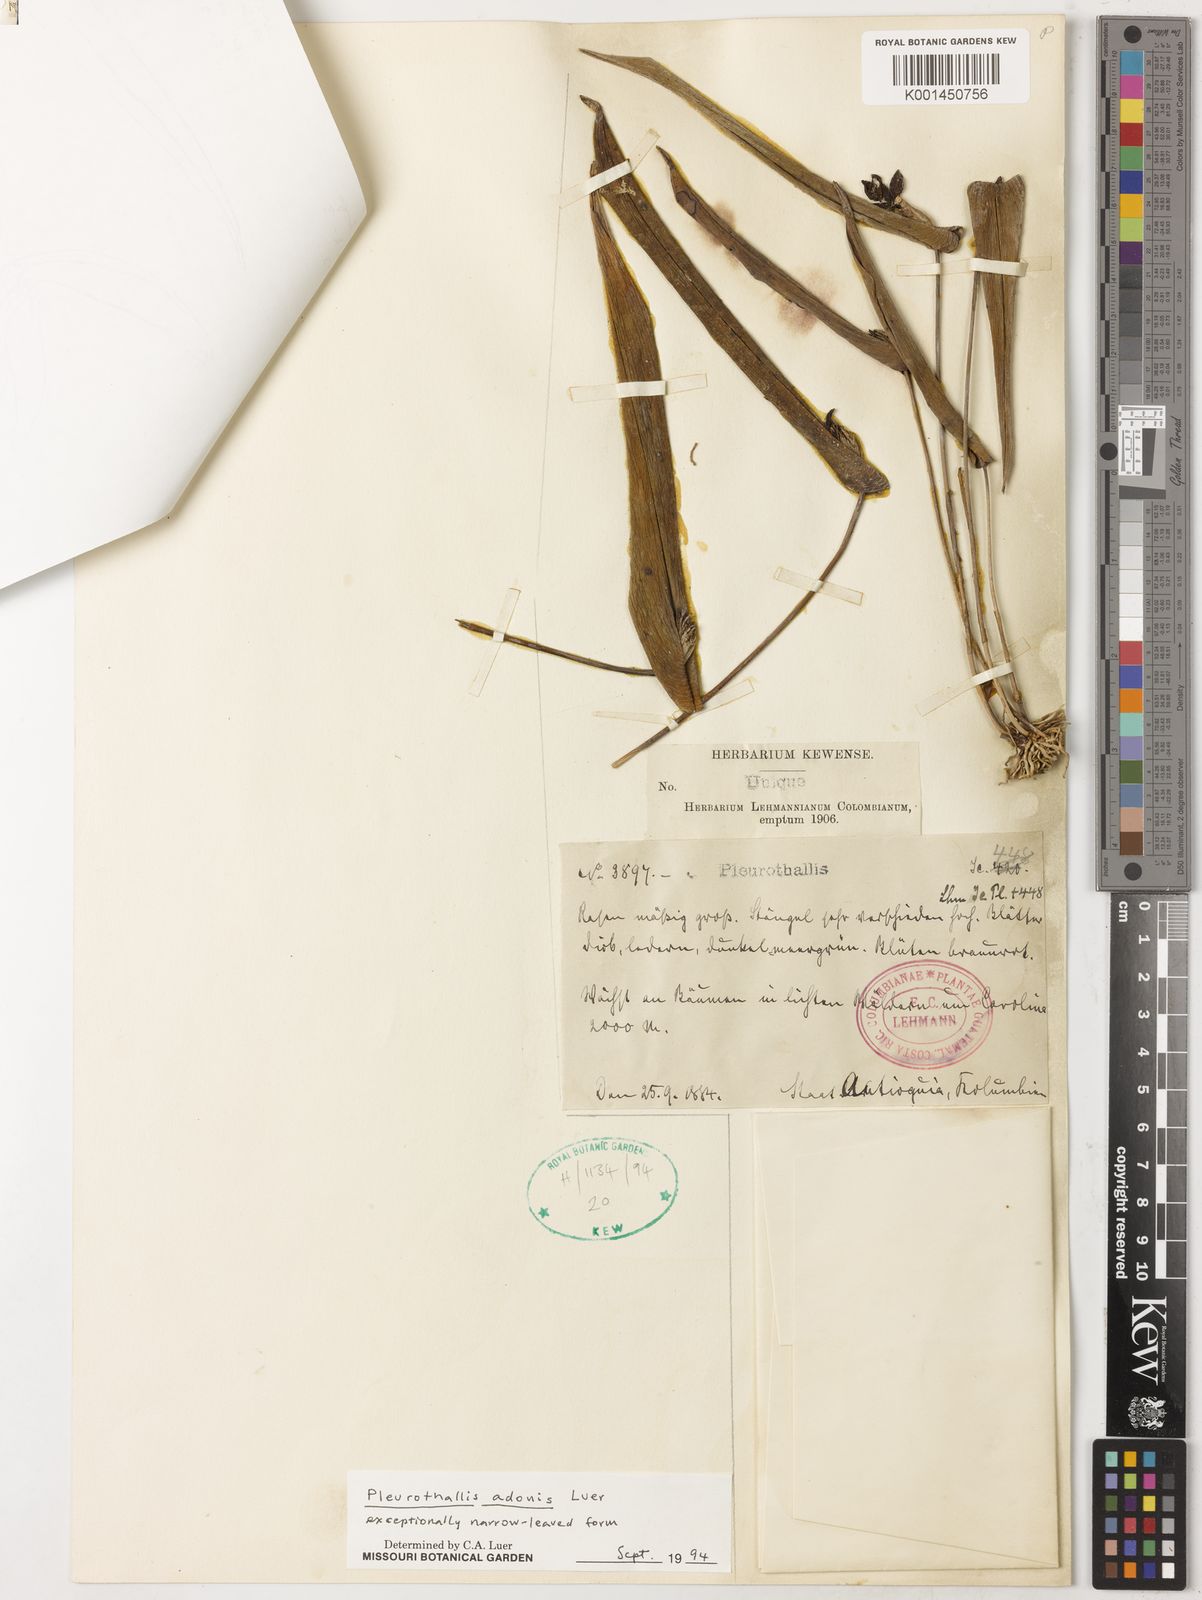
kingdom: Plantae
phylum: Tracheophyta
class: Liliopsida
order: Asparagales
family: Orchidaceae
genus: Pleurothallis
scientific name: Pleurothallis adonis
